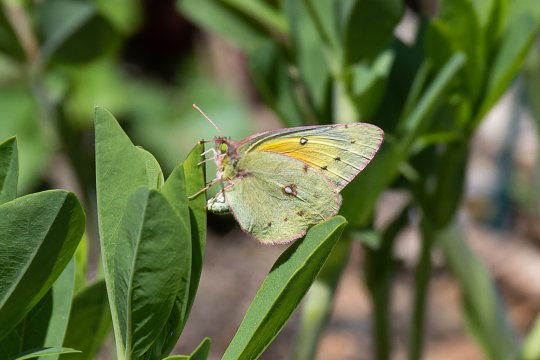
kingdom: Animalia
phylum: Arthropoda
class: Insecta
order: Lepidoptera
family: Pieridae
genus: Colias
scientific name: Colias eurytheme
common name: Orange Sulphur
